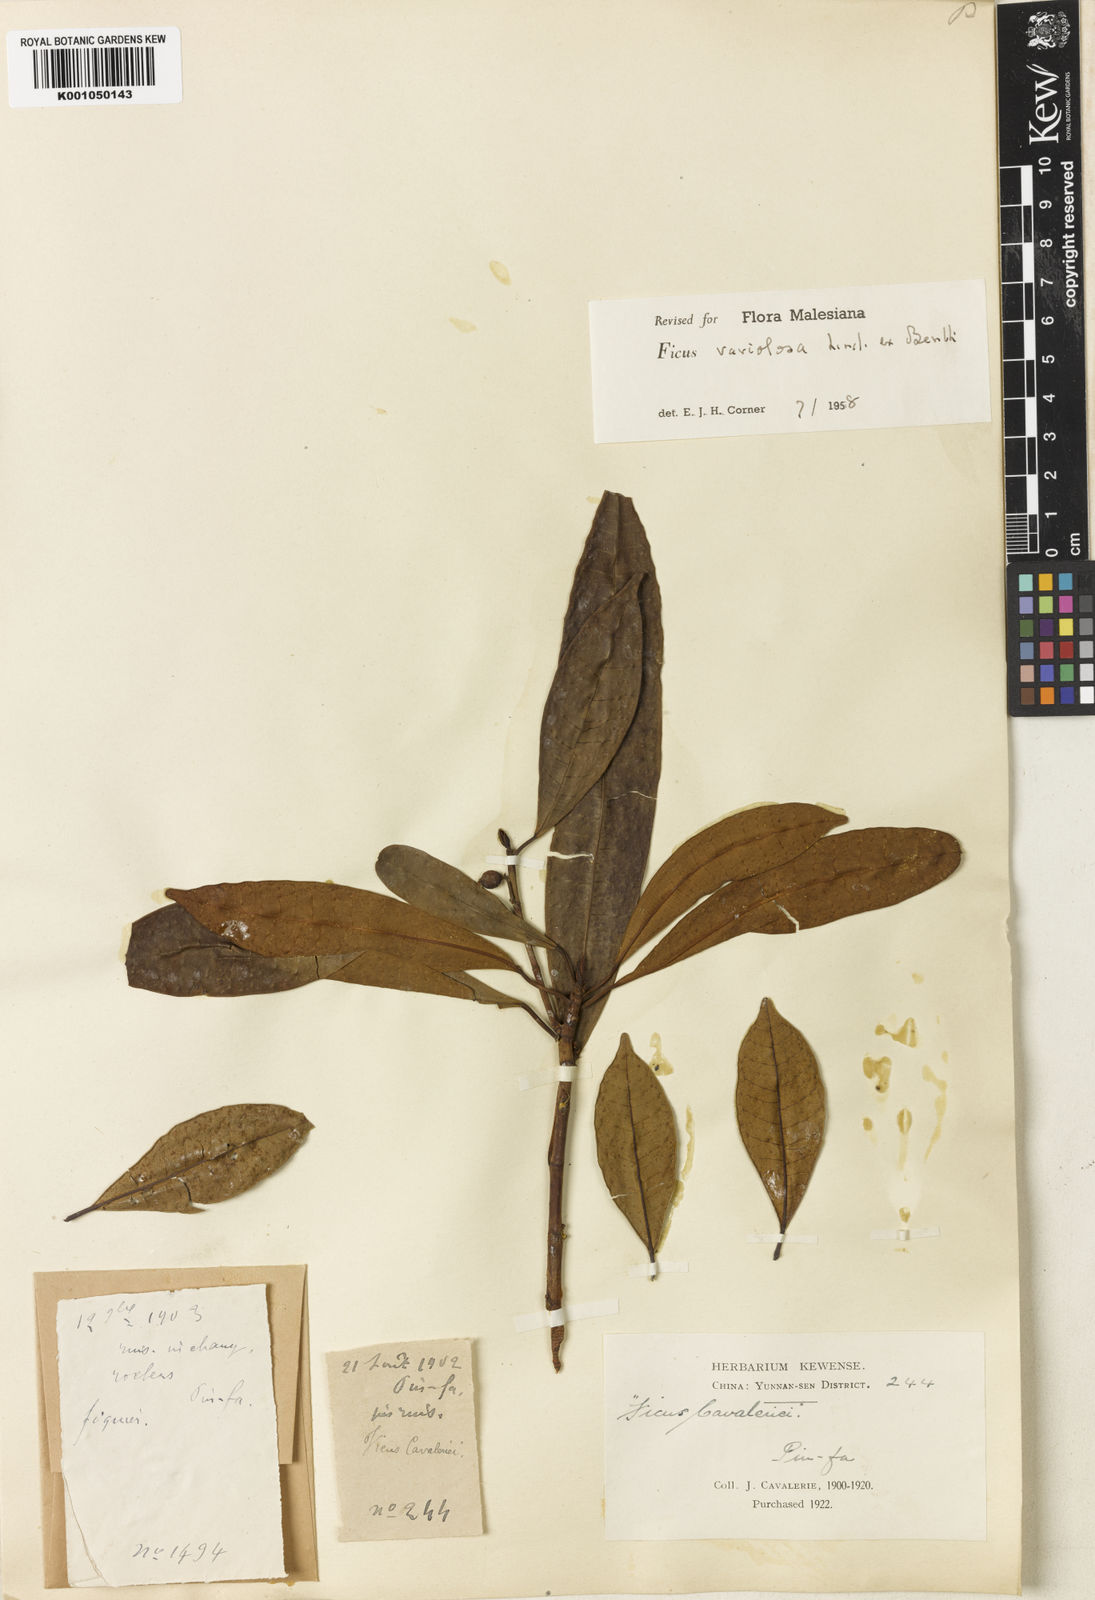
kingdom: Plantae
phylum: Tracheophyta
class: Magnoliopsida
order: Rosales
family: Moraceae
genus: Ficus
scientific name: Ficus variolosa
